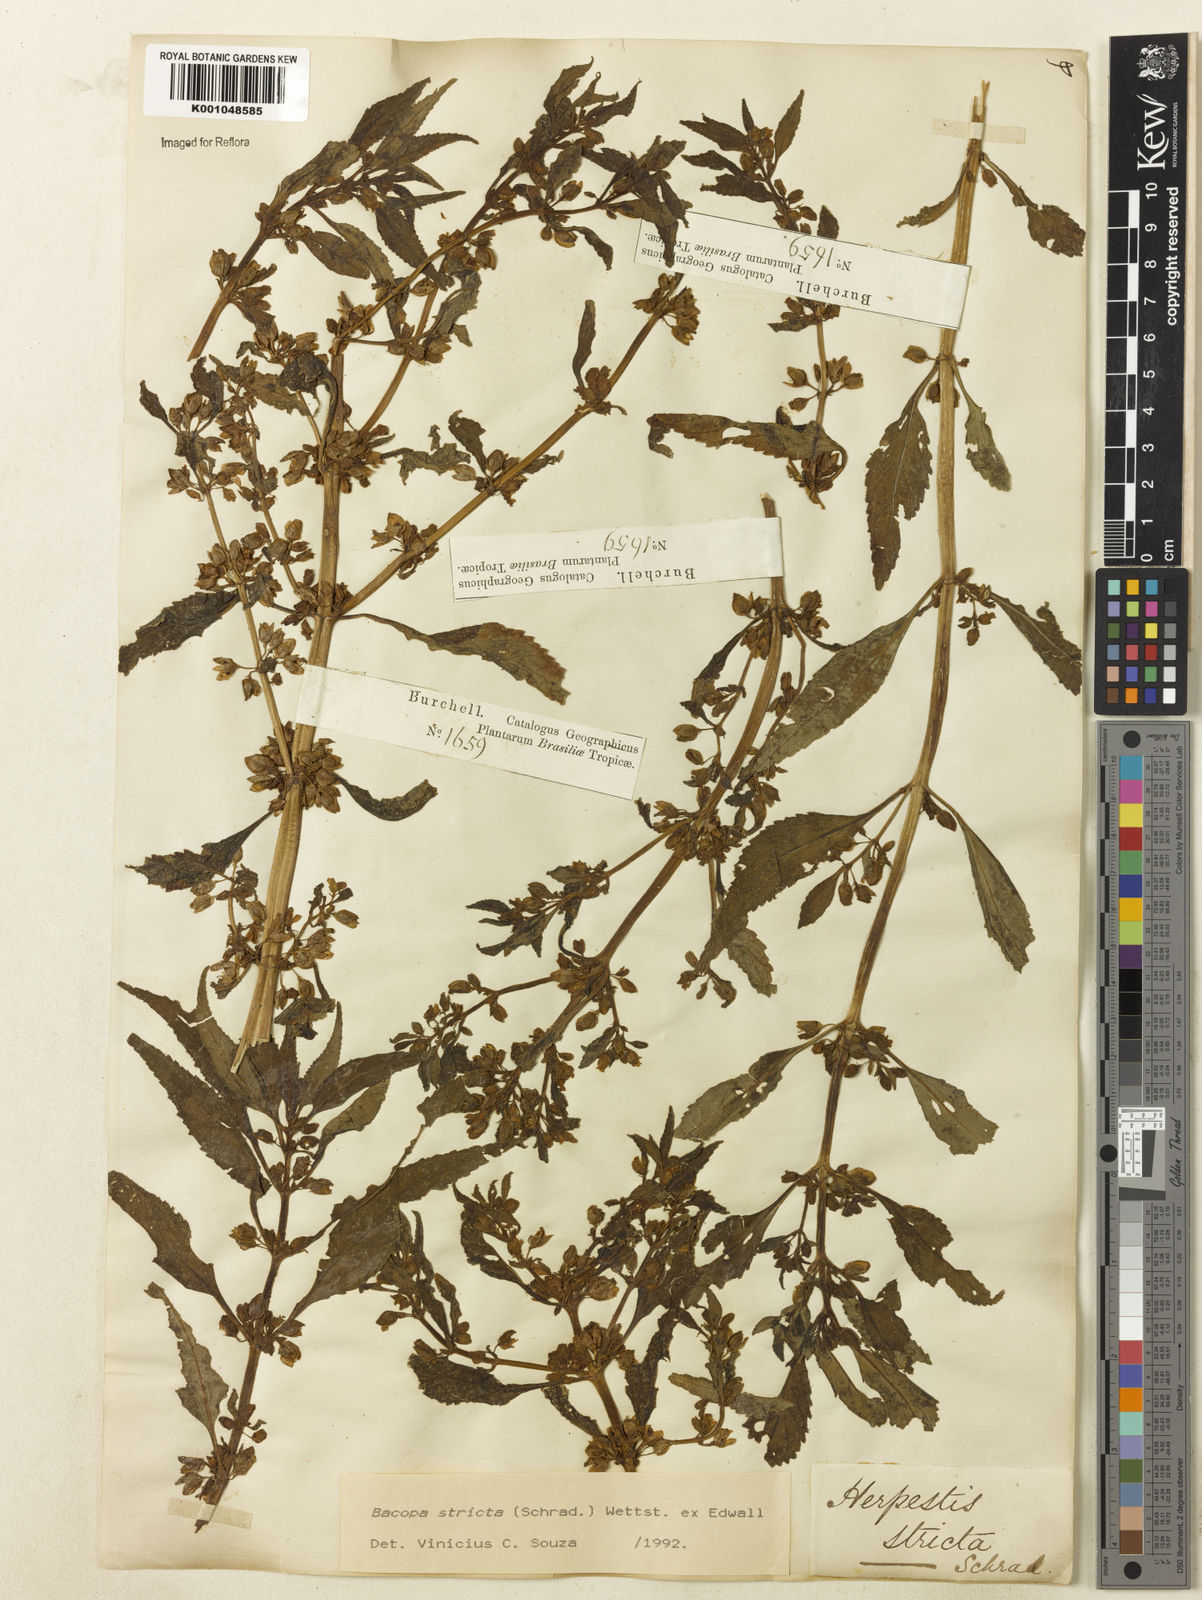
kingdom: Plantae
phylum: Tracheophyta
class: Magnoliopsida
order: Lamiales
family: Plantaginaceae
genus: Bacopa
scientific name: Bacopa stricta
